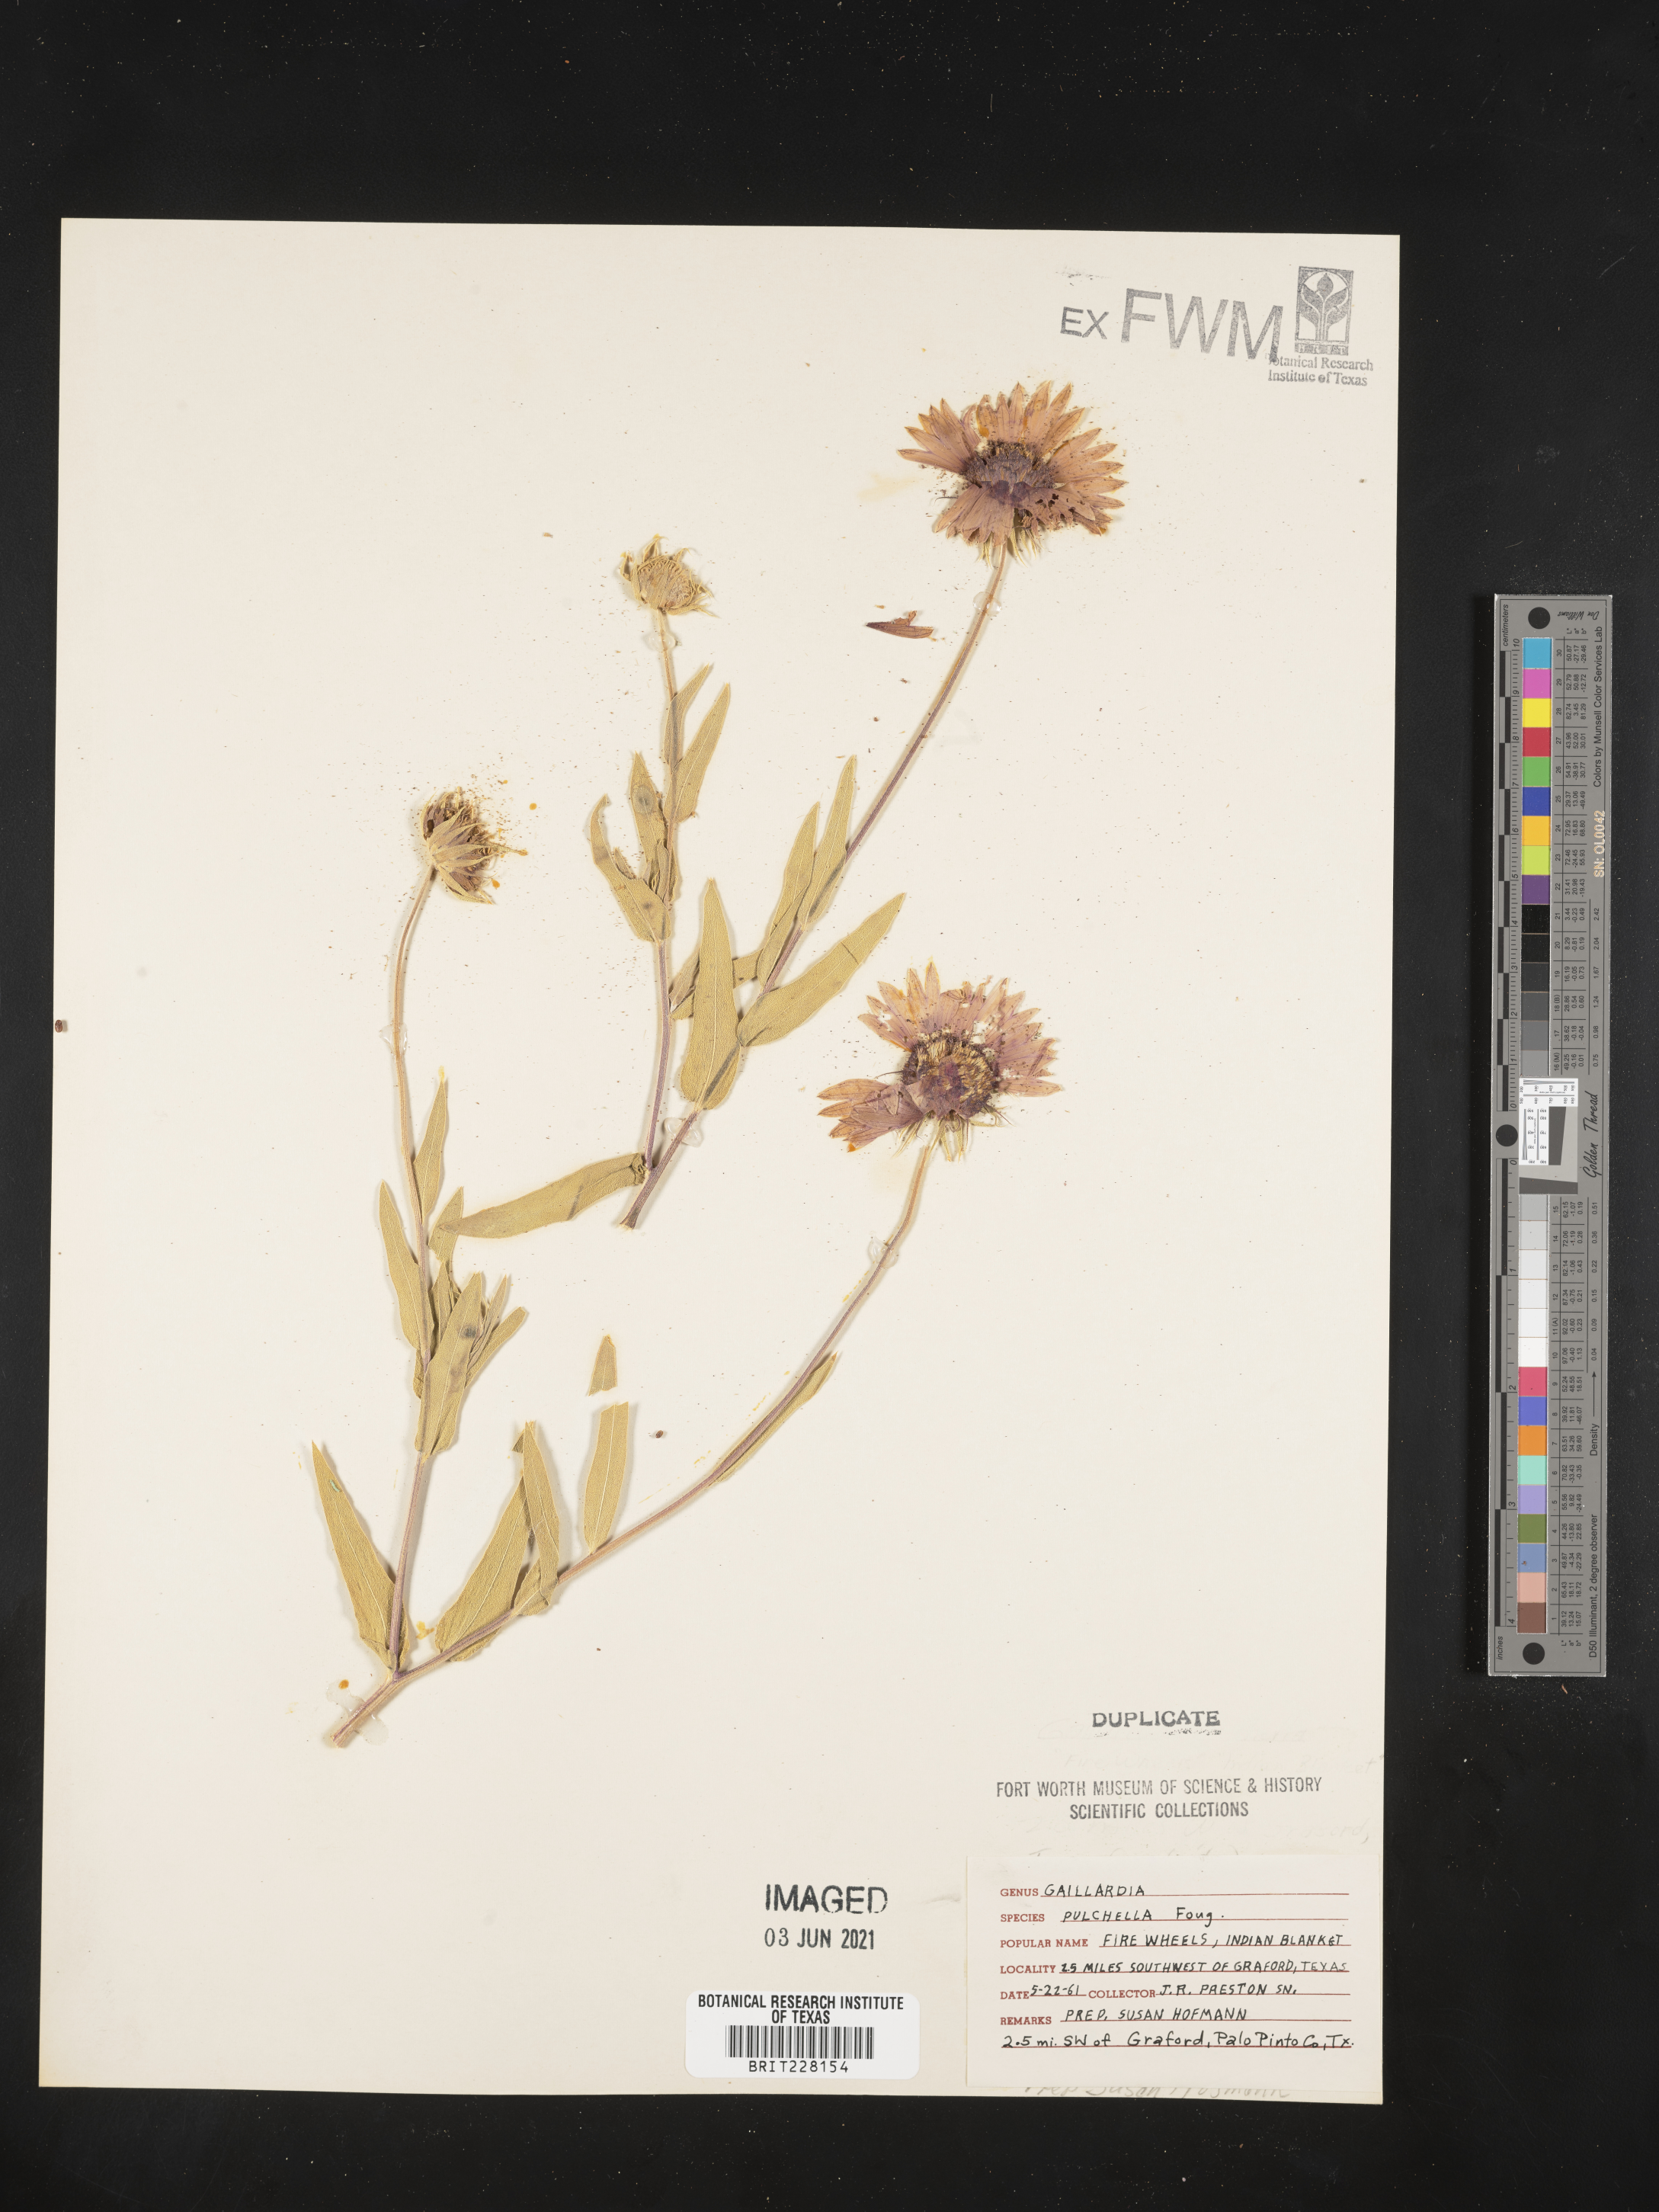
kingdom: Plantae
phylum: Tracheophyta
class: Magnoliopsida
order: Asterales
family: Asteraceae
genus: Gaillardia
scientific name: Gaillardia pulchella
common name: Firewheel
